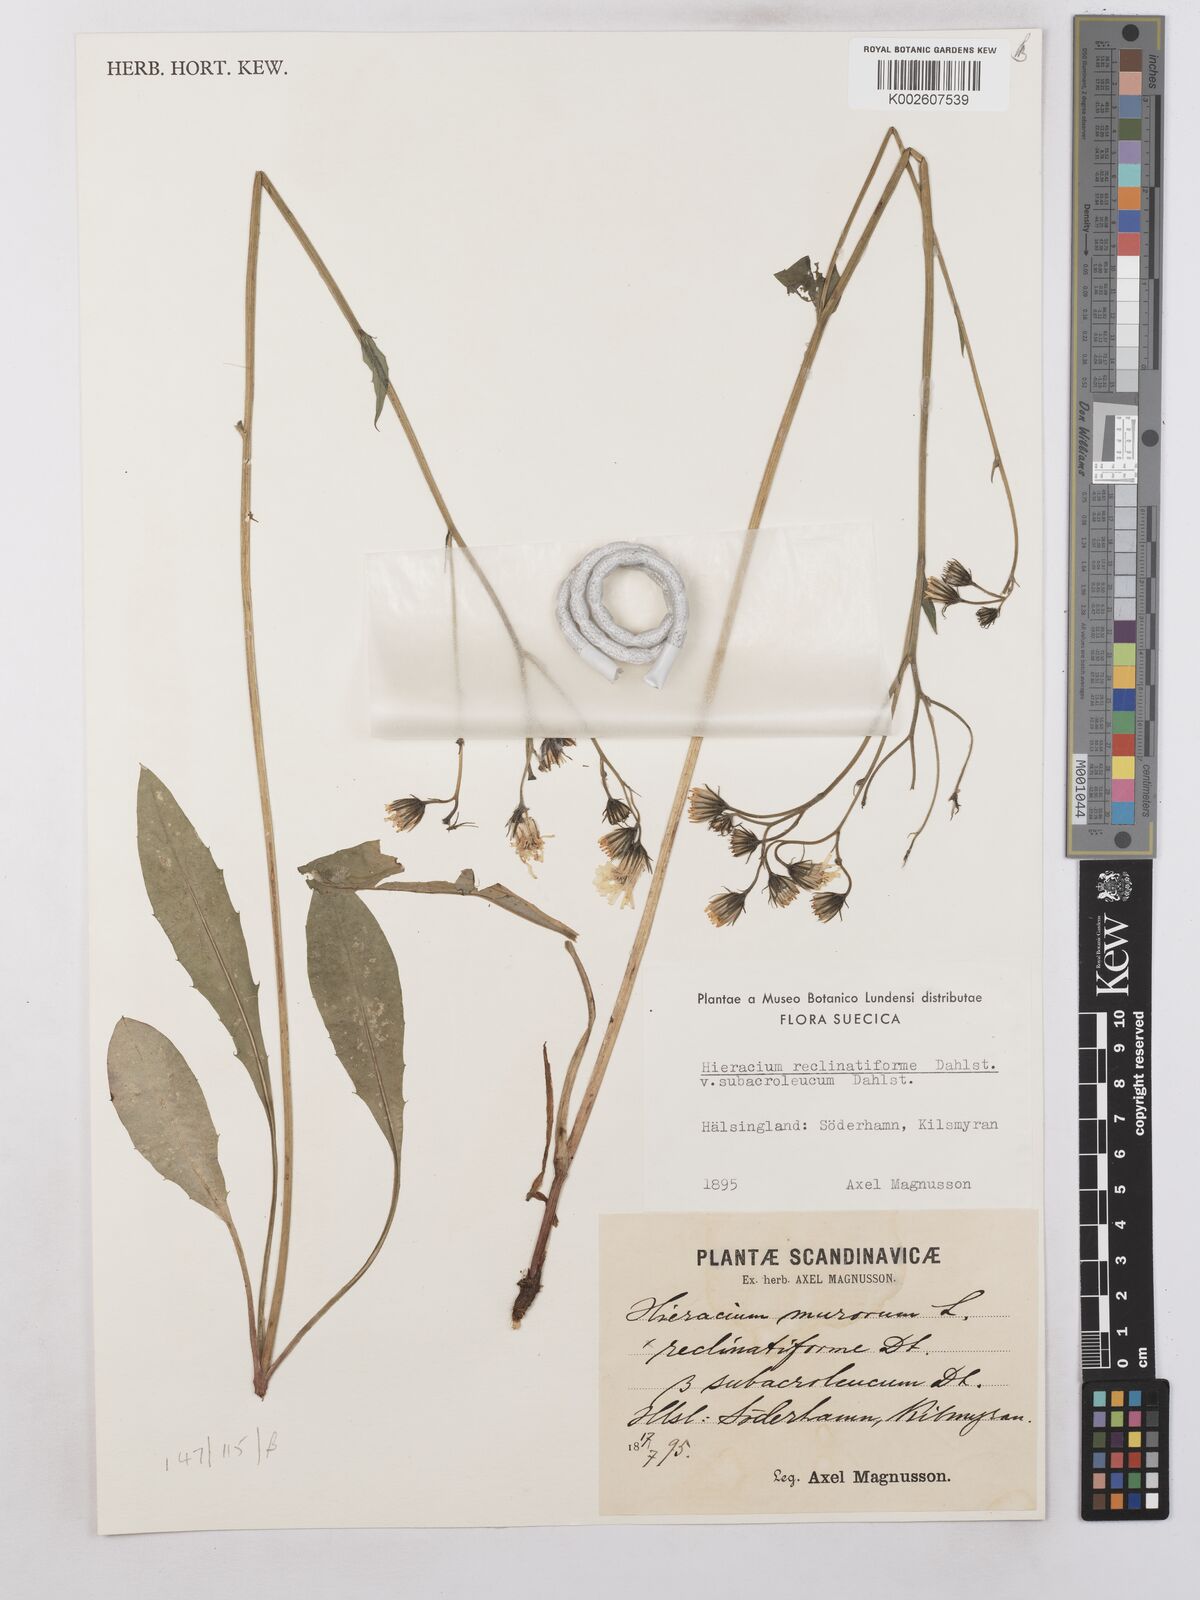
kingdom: Plantae
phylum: Tracheophyta
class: Magnoliopsida
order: Asterales
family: Asteraceae
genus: Hieracium
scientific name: Hieracium caesium
